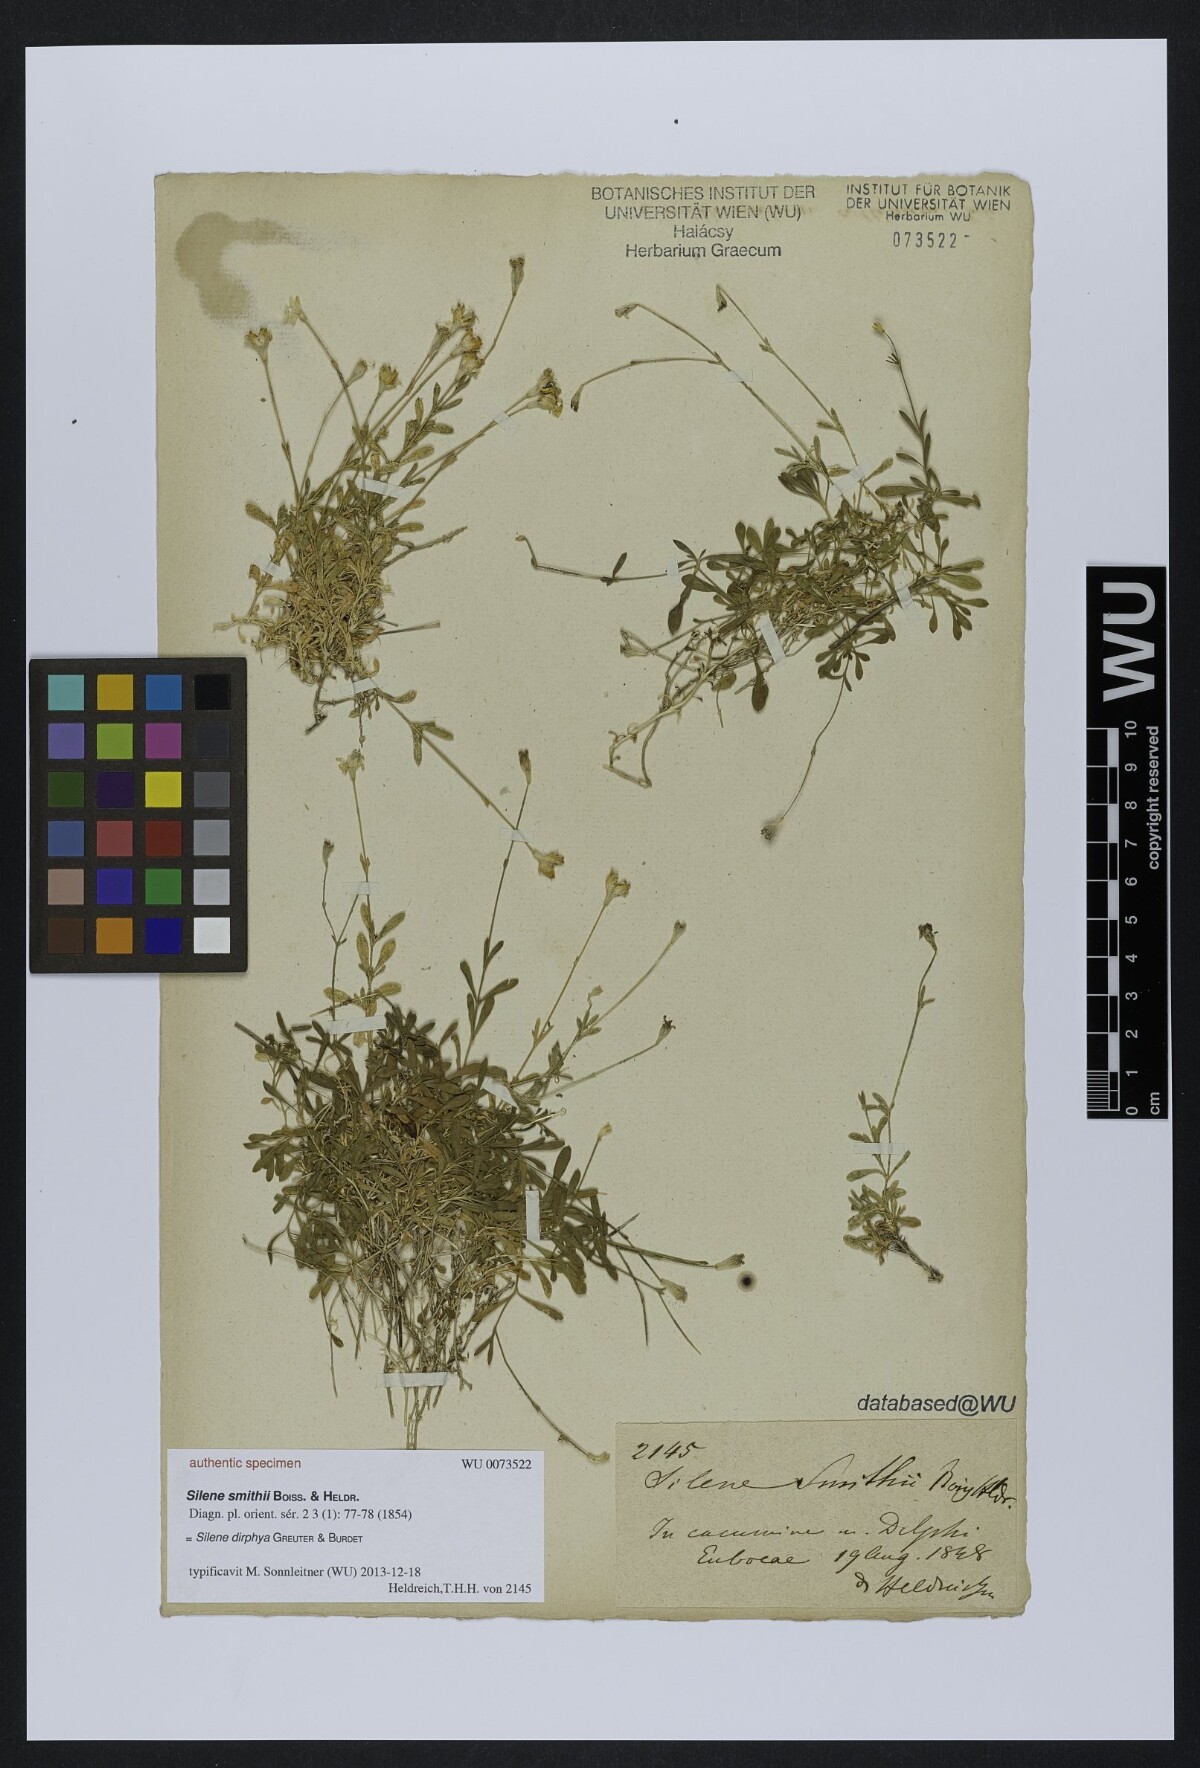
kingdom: Plantae
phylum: Tracheophyta
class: Magnoliopsida
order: Caryophyllales
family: Caryophyllaceae
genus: Silene
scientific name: Silene dirphya
